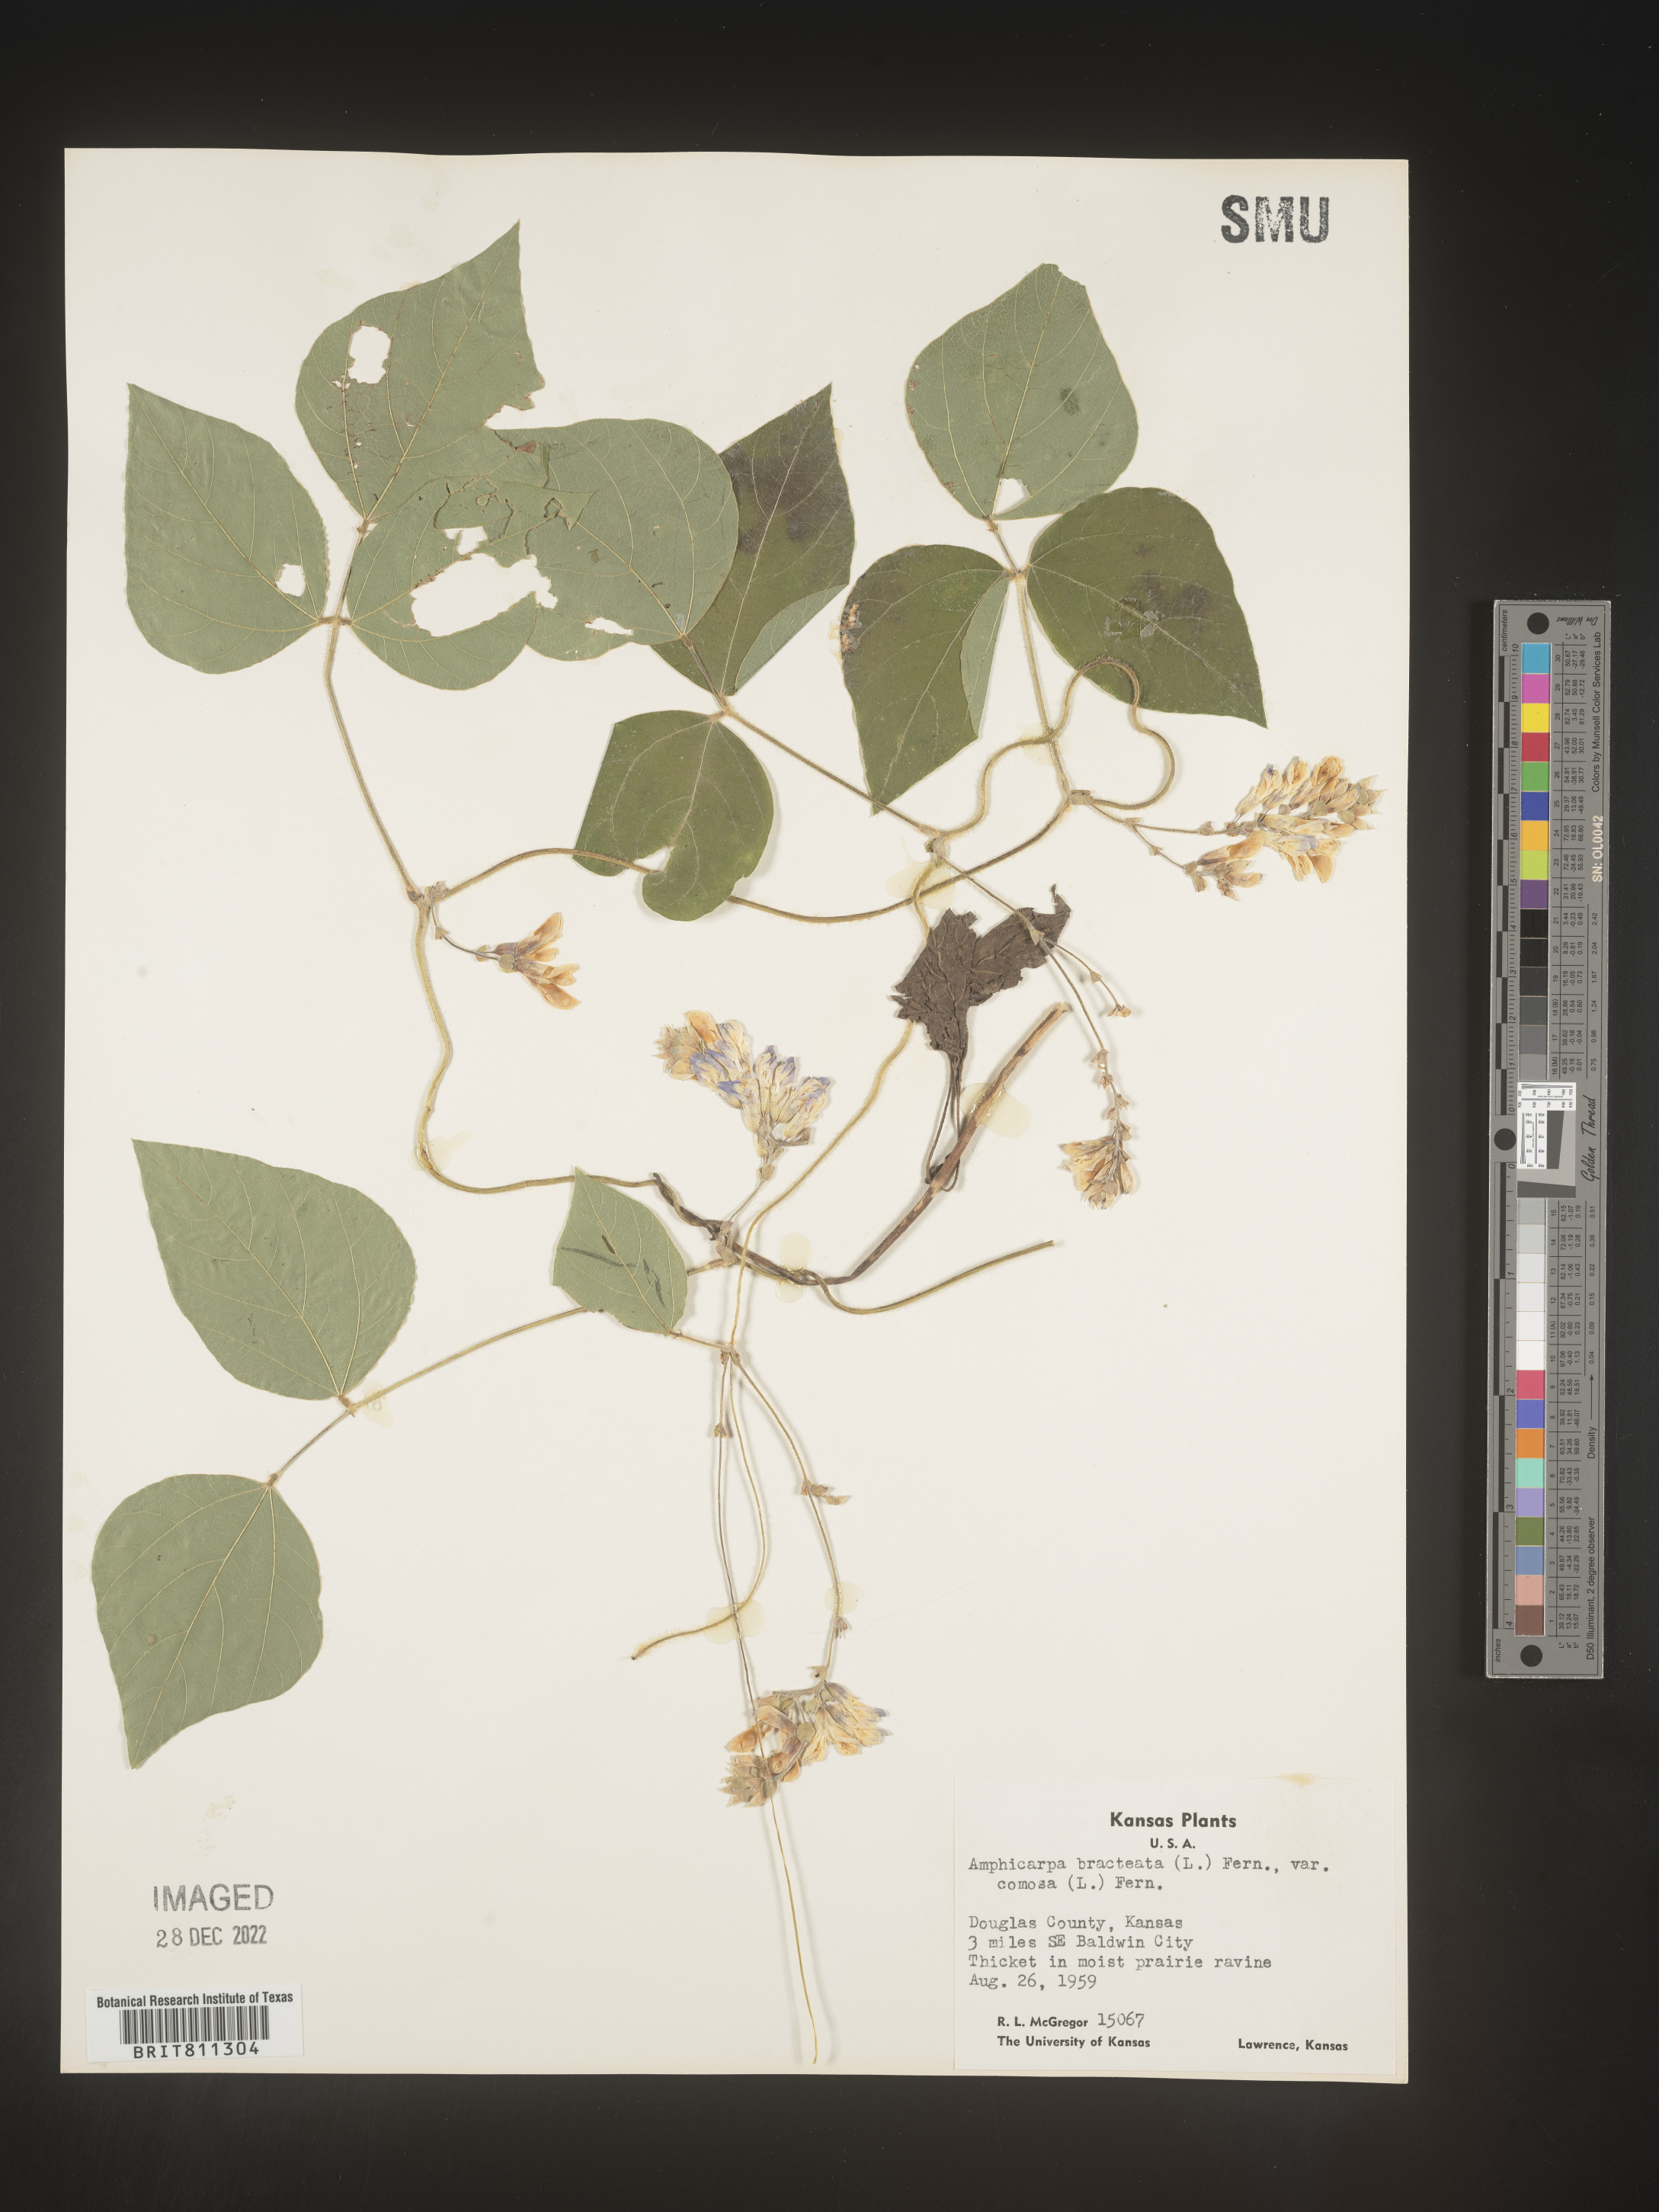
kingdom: Plantae
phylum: Tracheophyta
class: Magnoliopsida
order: Fabales
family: Fabaceae
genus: Amphicarpaea
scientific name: Amphicarpaea bracteata
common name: American hog peanut
